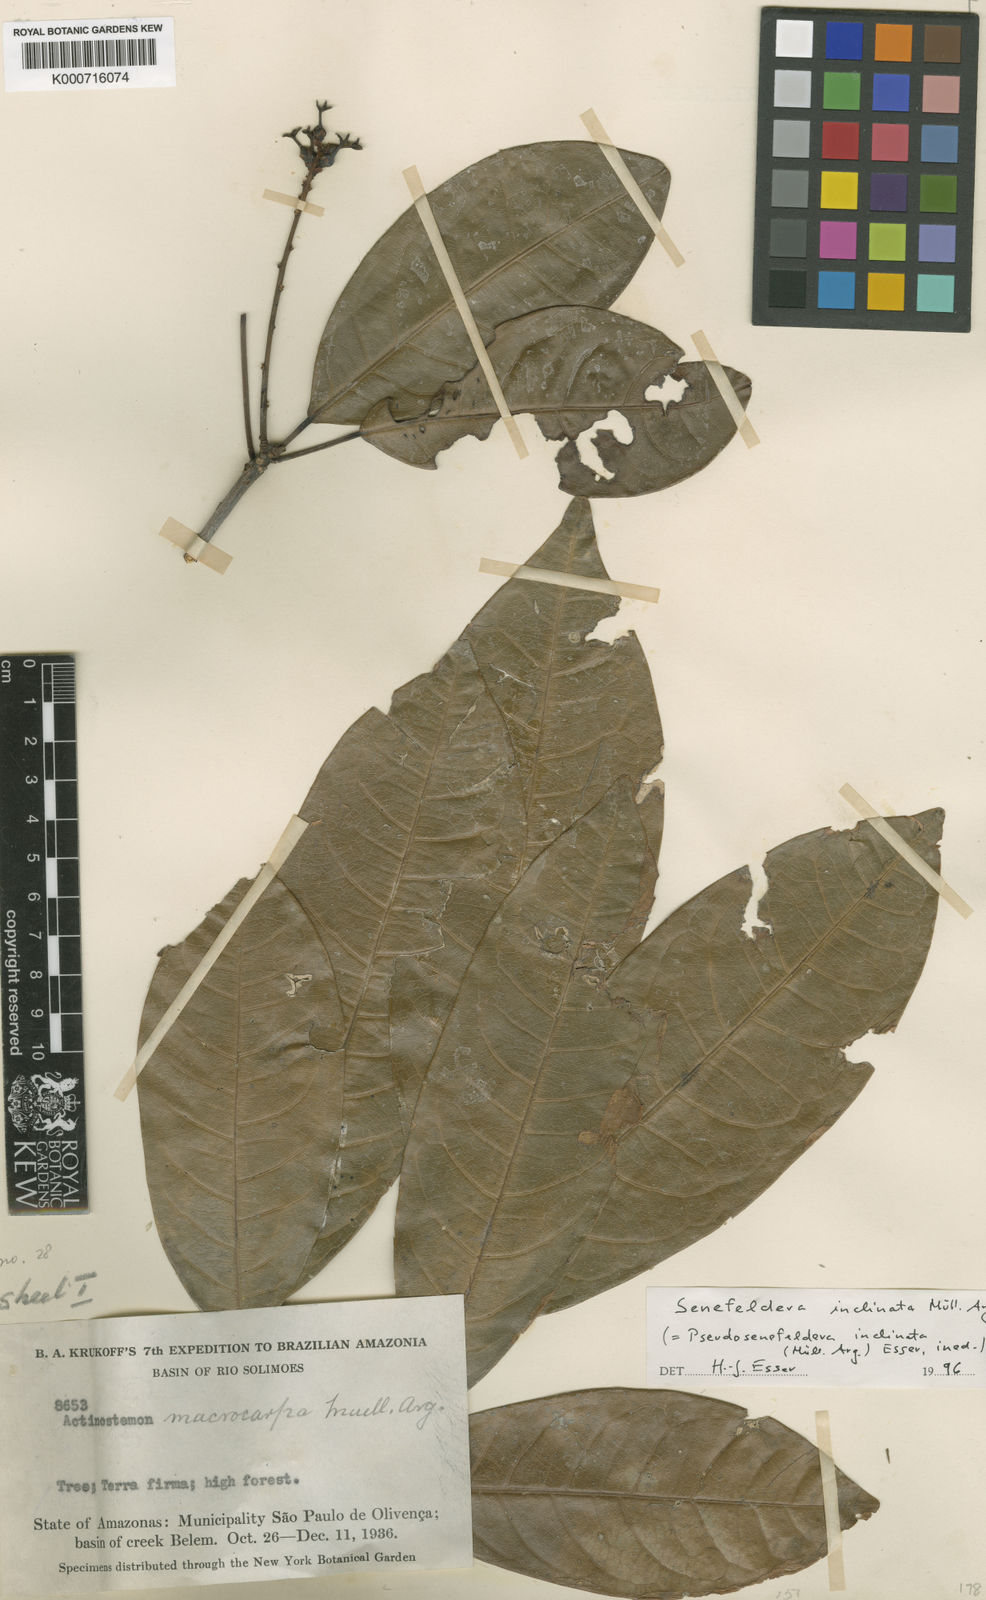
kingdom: Plantae
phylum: Tracheophyta
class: Magnoliopsida
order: Malpighiales
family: Euphorbiaceae
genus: Pseudosenefeldera
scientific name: Pseudosenefeldera
